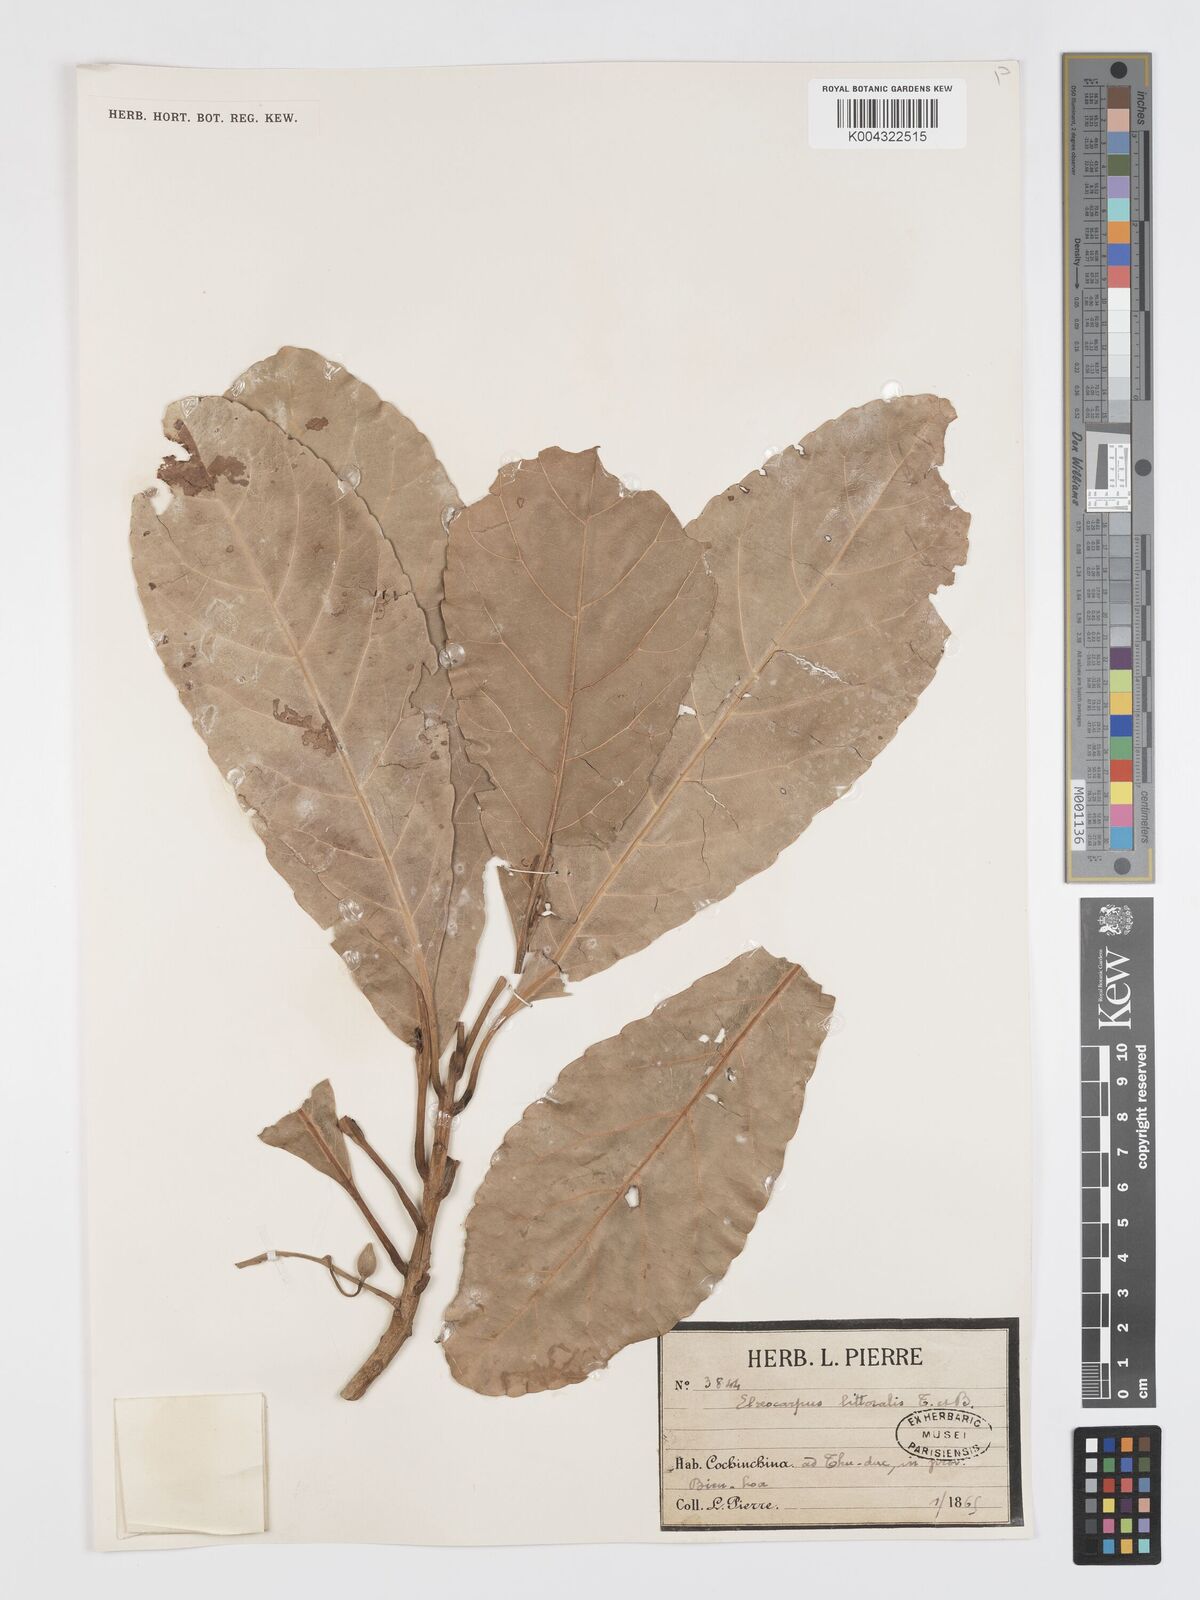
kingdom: Plantae
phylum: Tracheophyta
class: Magnoliopsida
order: Oxalidales
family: Elaeocarpaceae
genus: Elaeocarpus
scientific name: Elaeocarpus macrocerus
